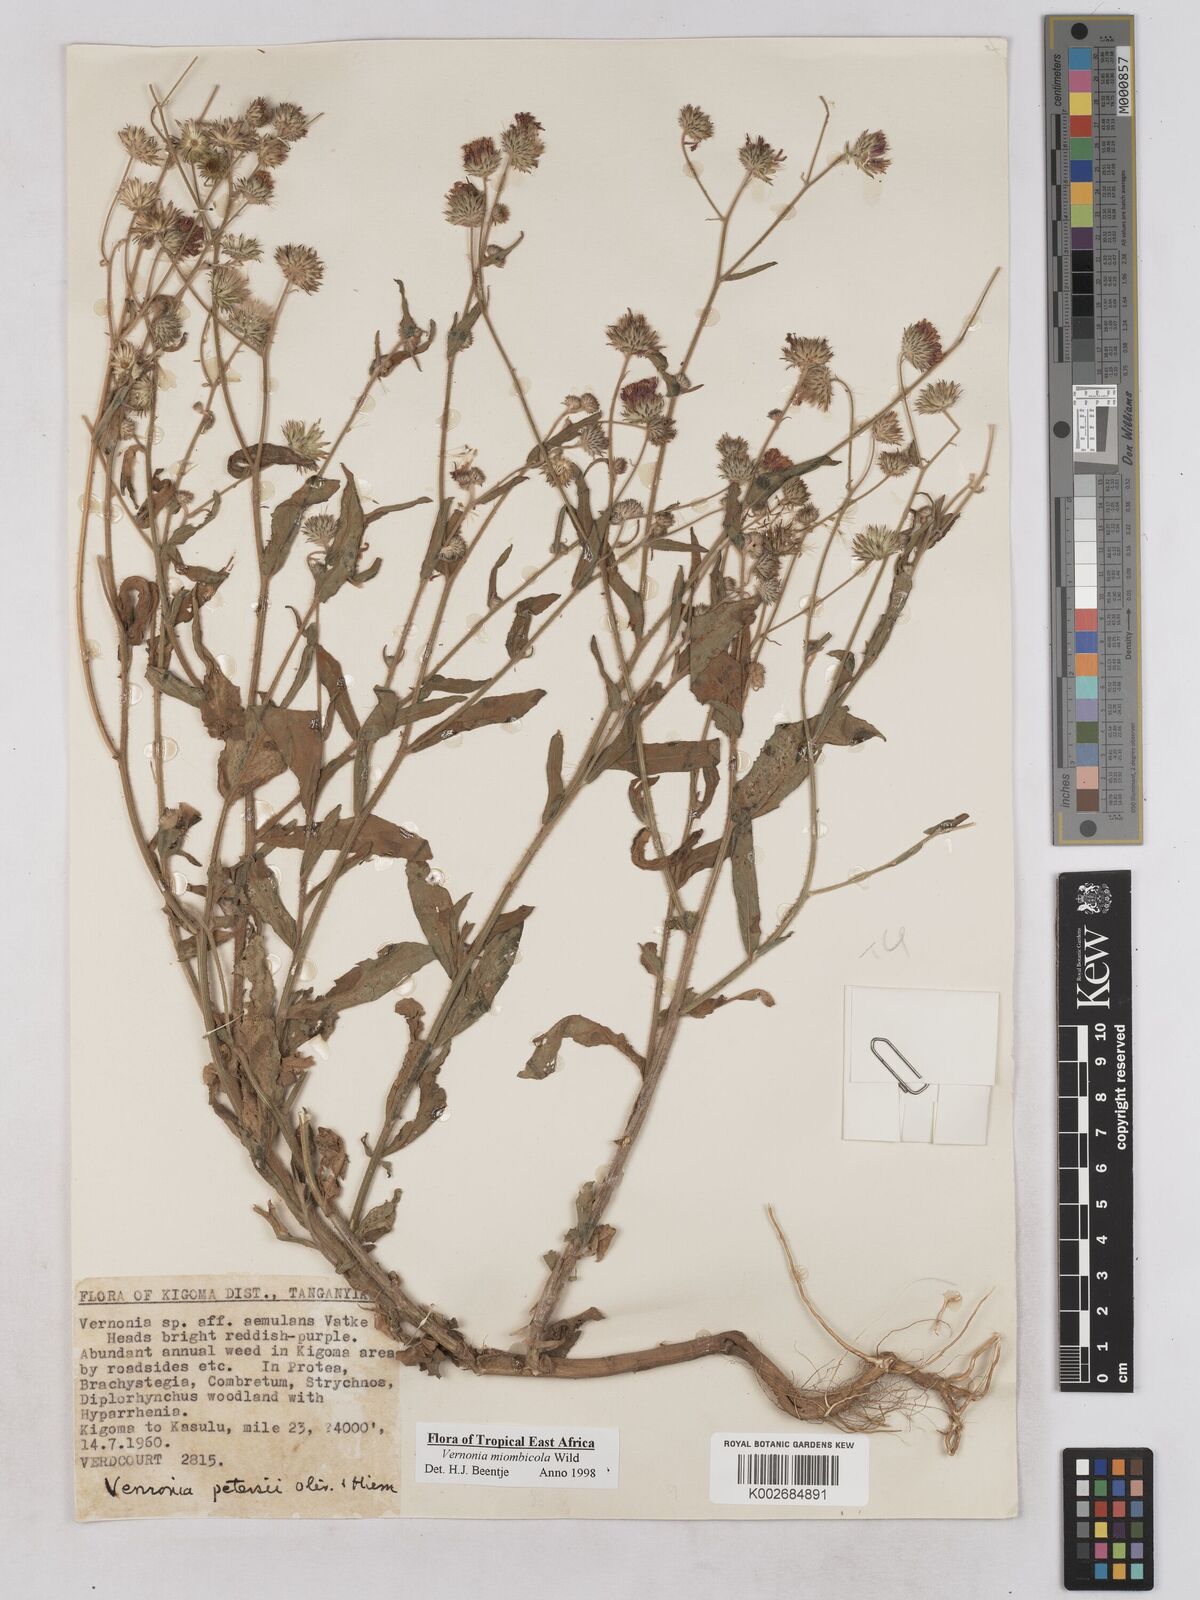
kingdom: Plantae
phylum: Tracheophyta
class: Magnoliopsida
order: Asterales
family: Asteraceae
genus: Vernonia
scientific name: Vernonia miombicola
